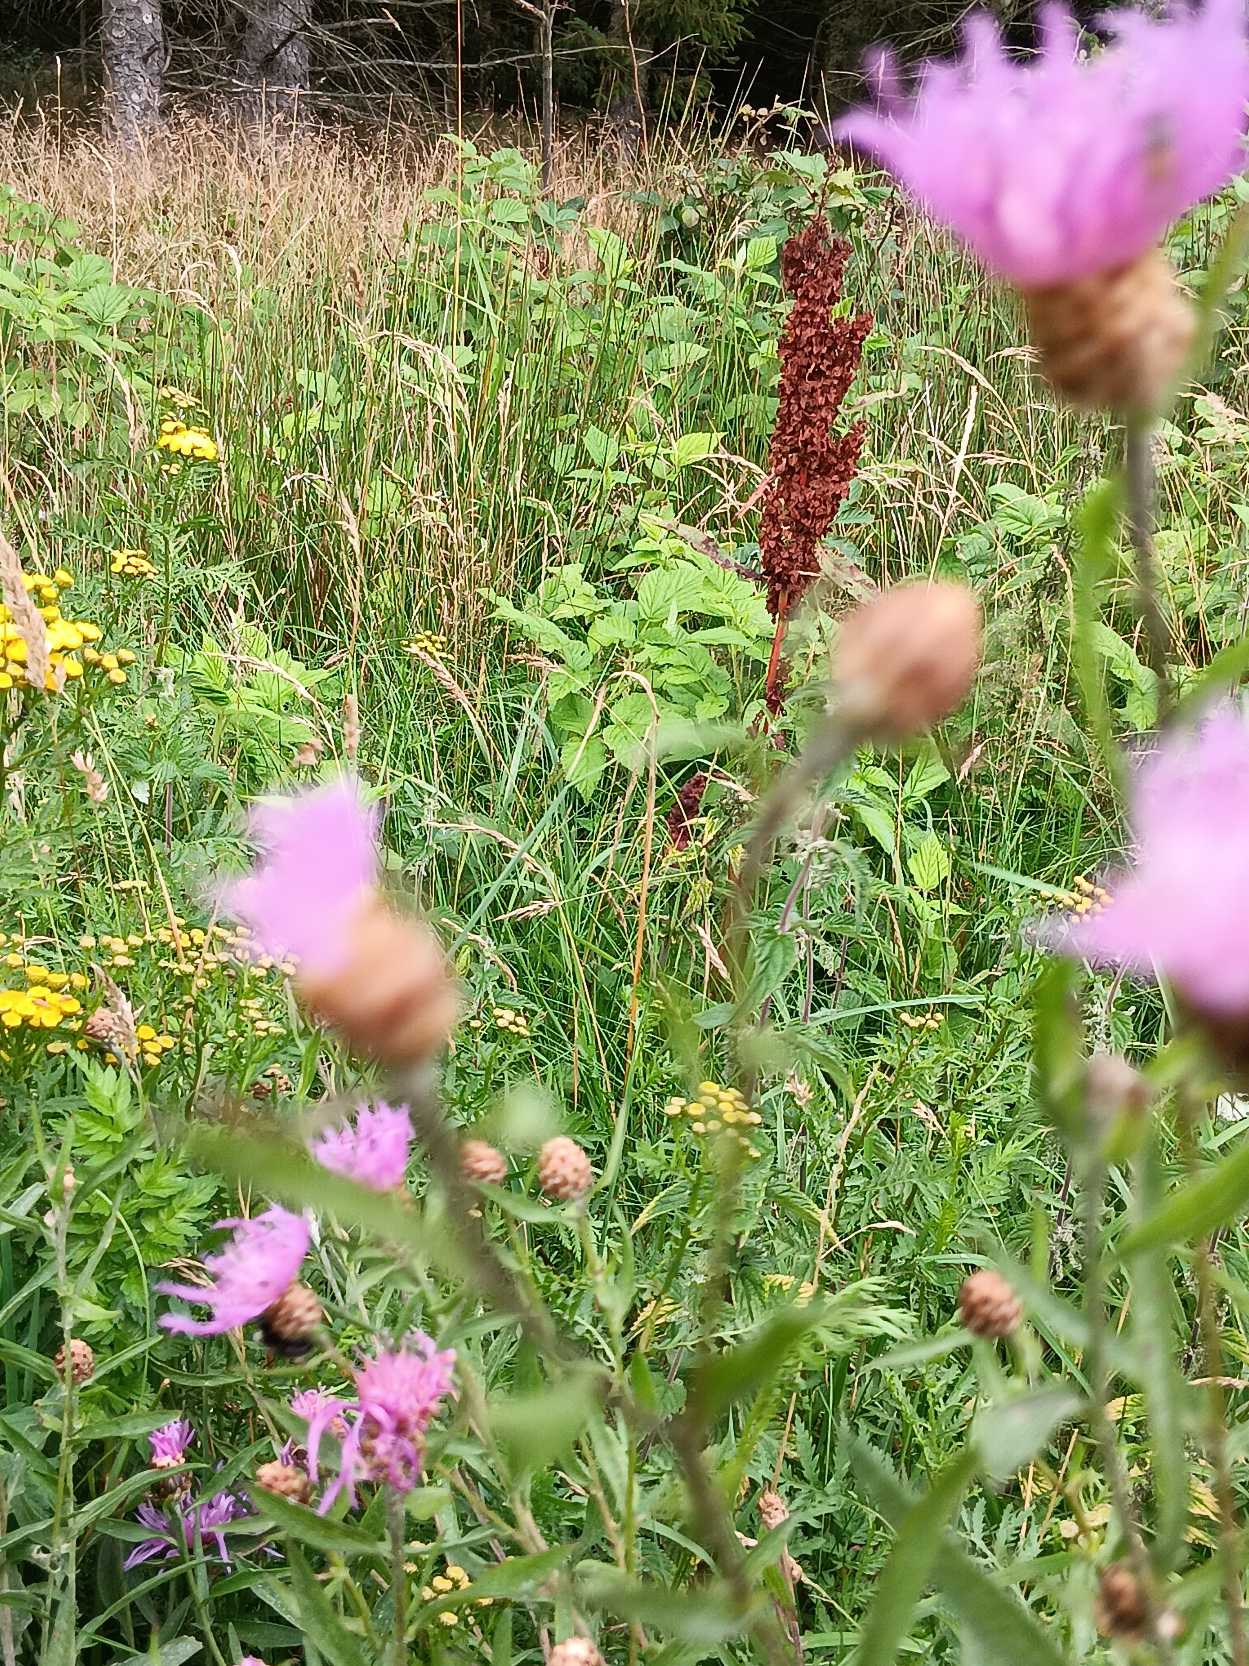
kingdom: Plantae
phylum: Tracheophyta
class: Magnoliopsida
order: Asterales
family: Asteraceae
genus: Centaurea
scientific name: Centaurea jacea
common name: Almindelig knopurt
